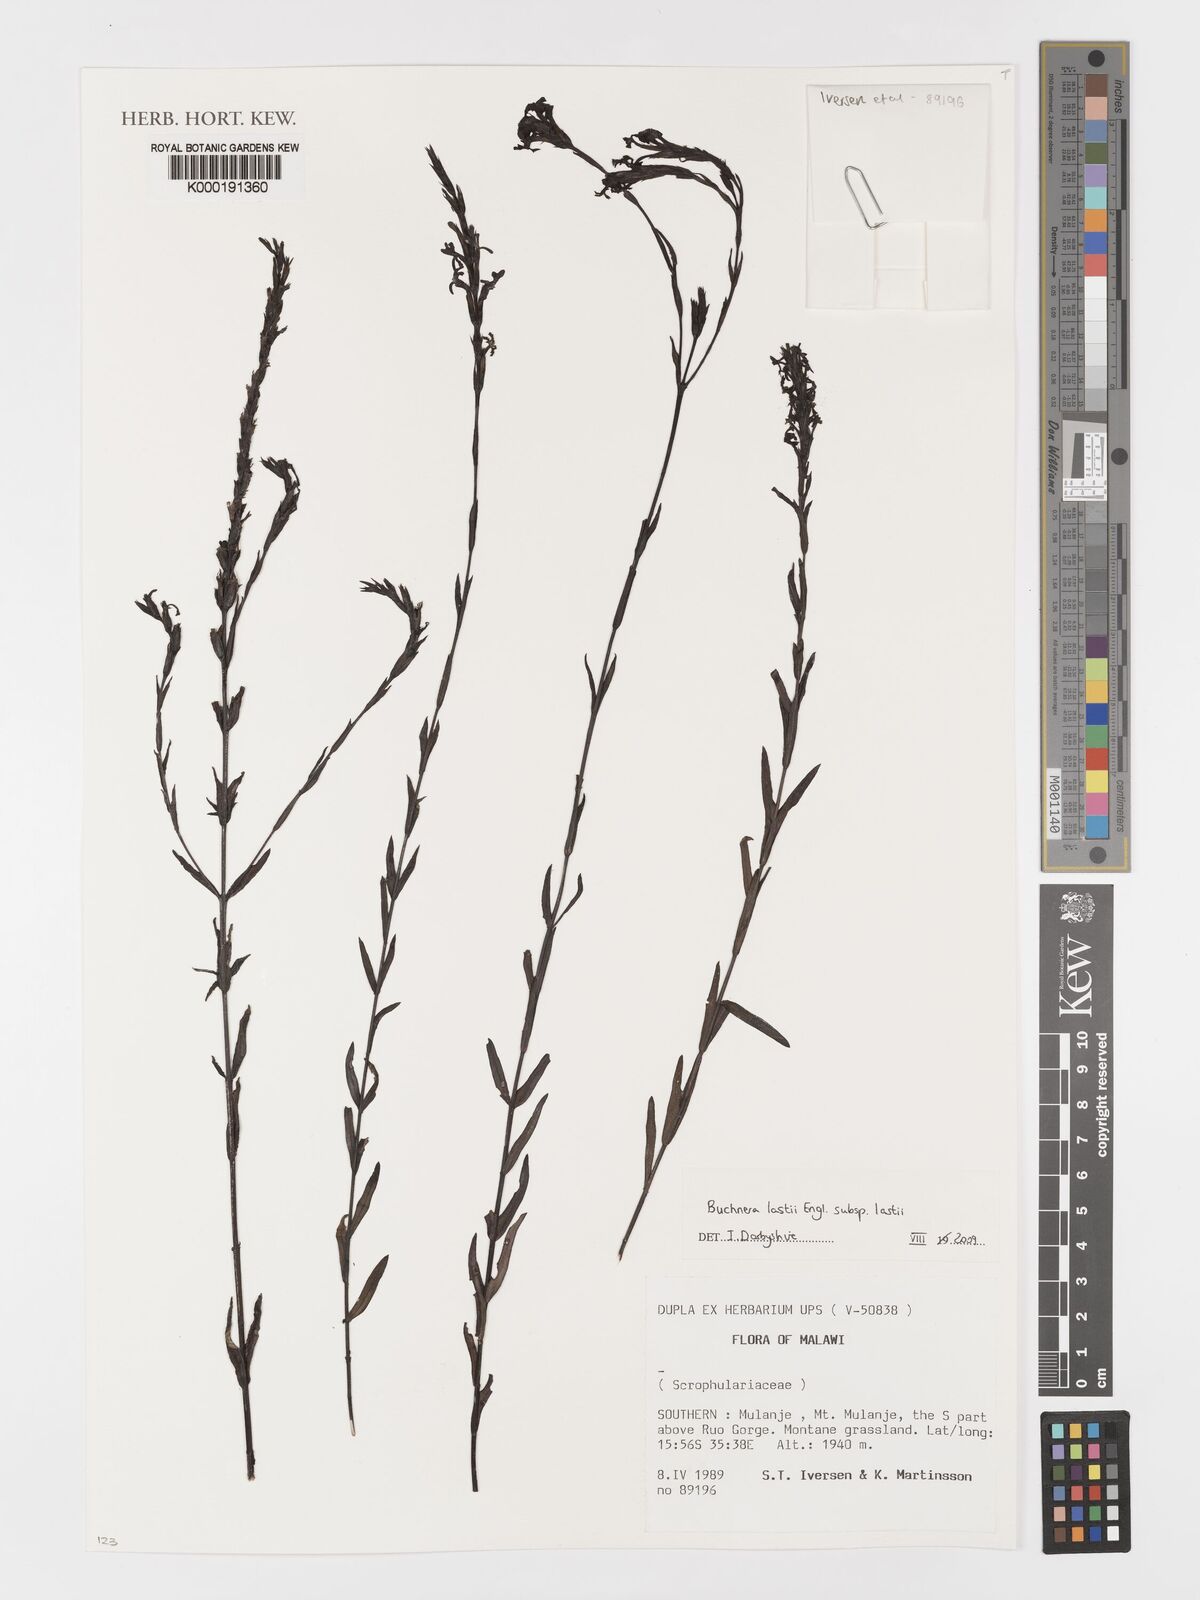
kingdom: Plantae
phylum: Tracheophyta
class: Magnoliopsida
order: Lamiales
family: Orobanchaceae
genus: Striga
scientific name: Striga
